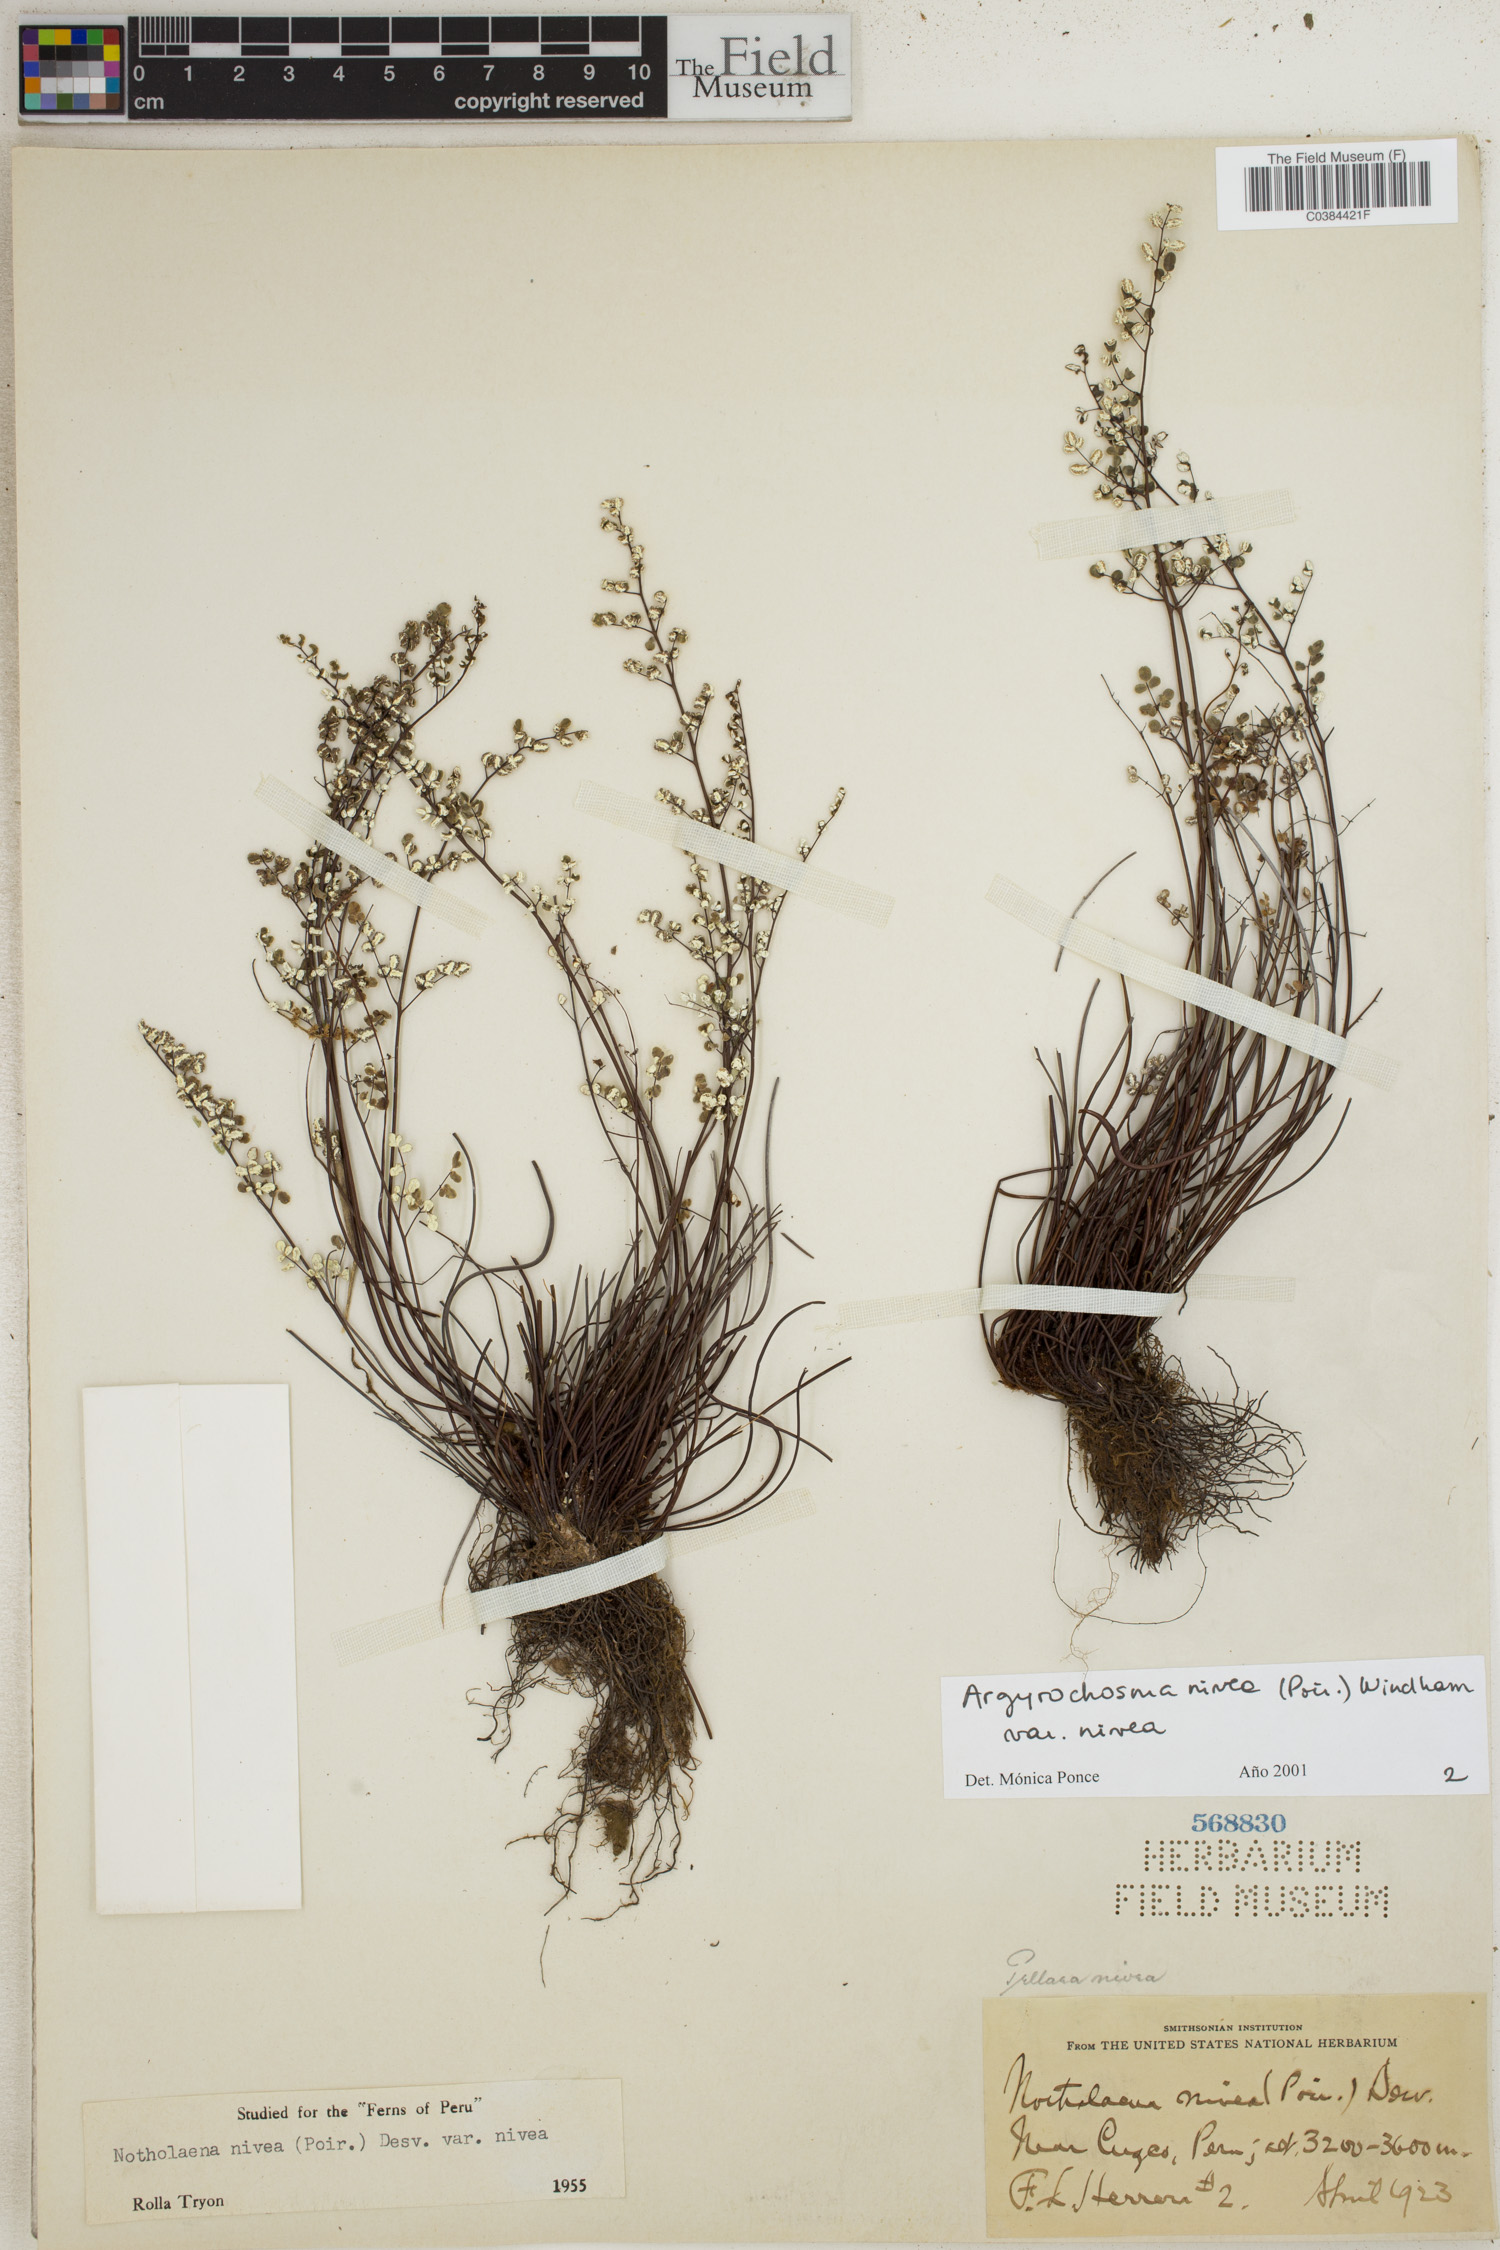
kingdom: Plantae
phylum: Tracheophyta
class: Polypodiopsida
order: Polypodiales
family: Pteridaceae
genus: Argyrochosma
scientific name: Argyrochosma nivea
